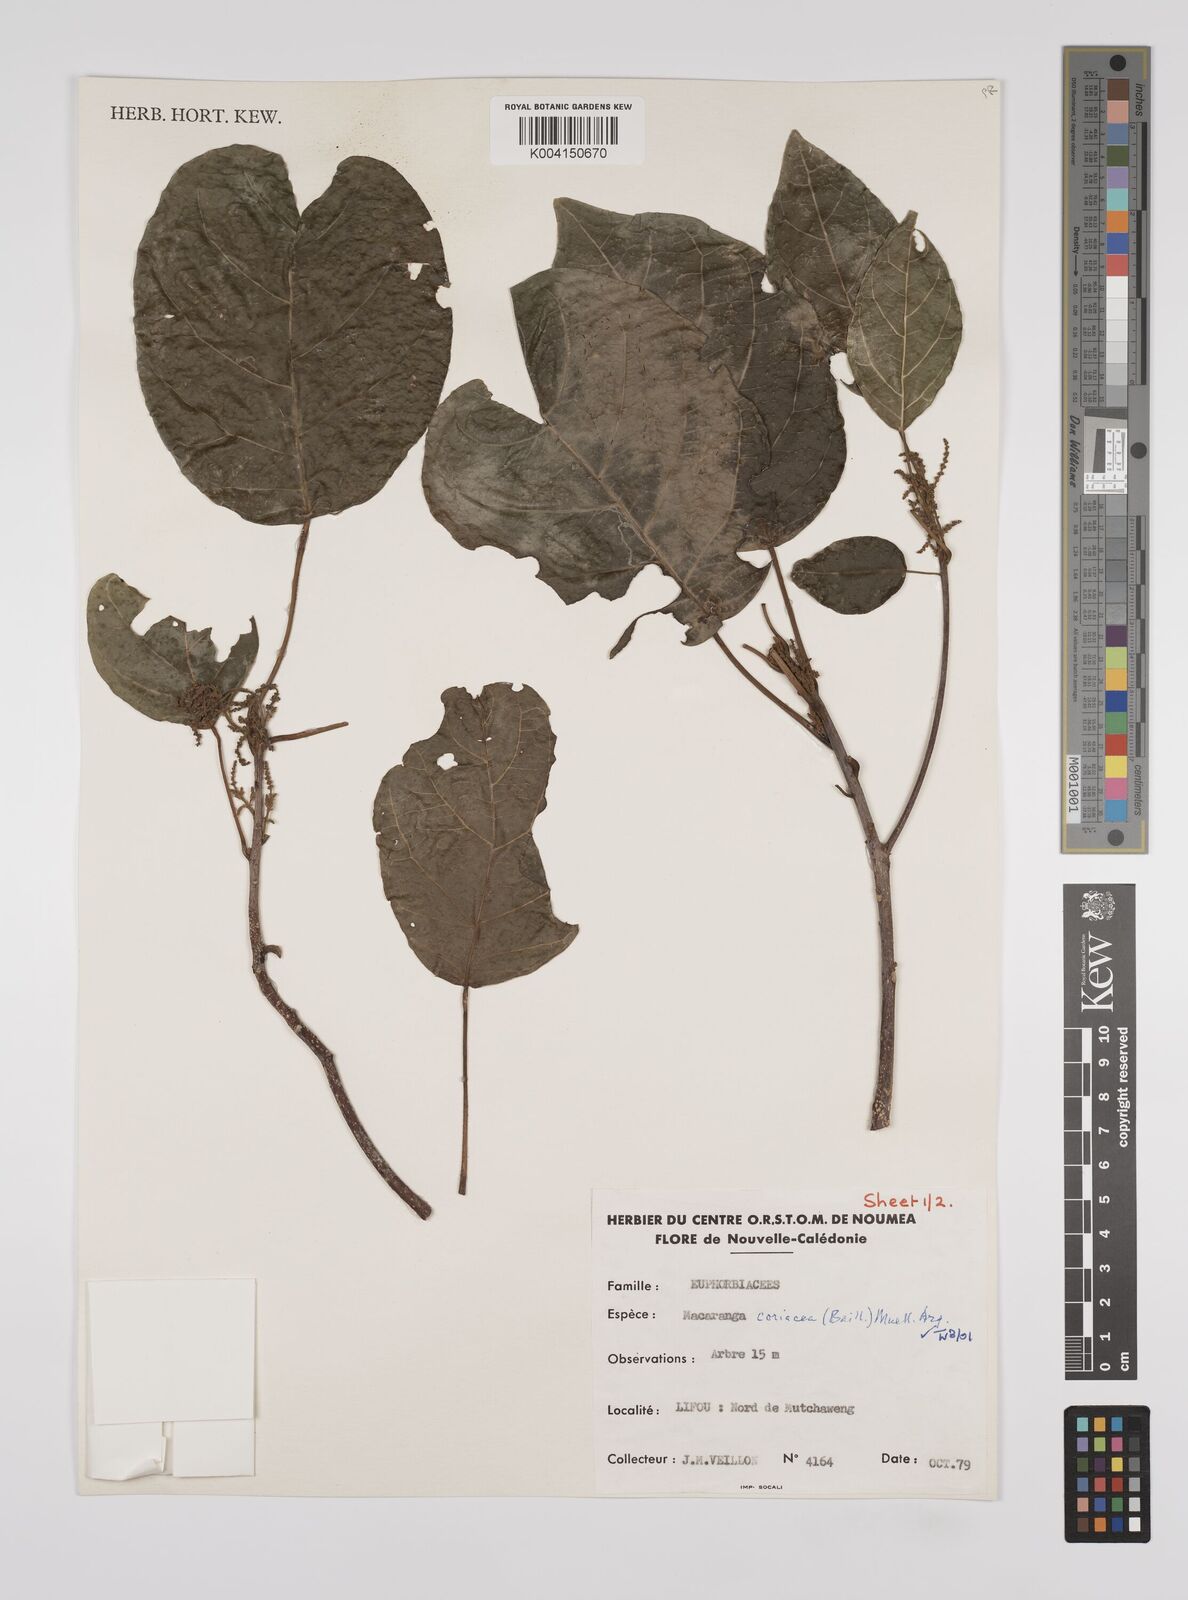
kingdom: Plantae
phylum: Tracheophyta
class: Magnoliopsida
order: Malpighiales
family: Euphorbiaceae
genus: Macaranga
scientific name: Macaranga coriacea
